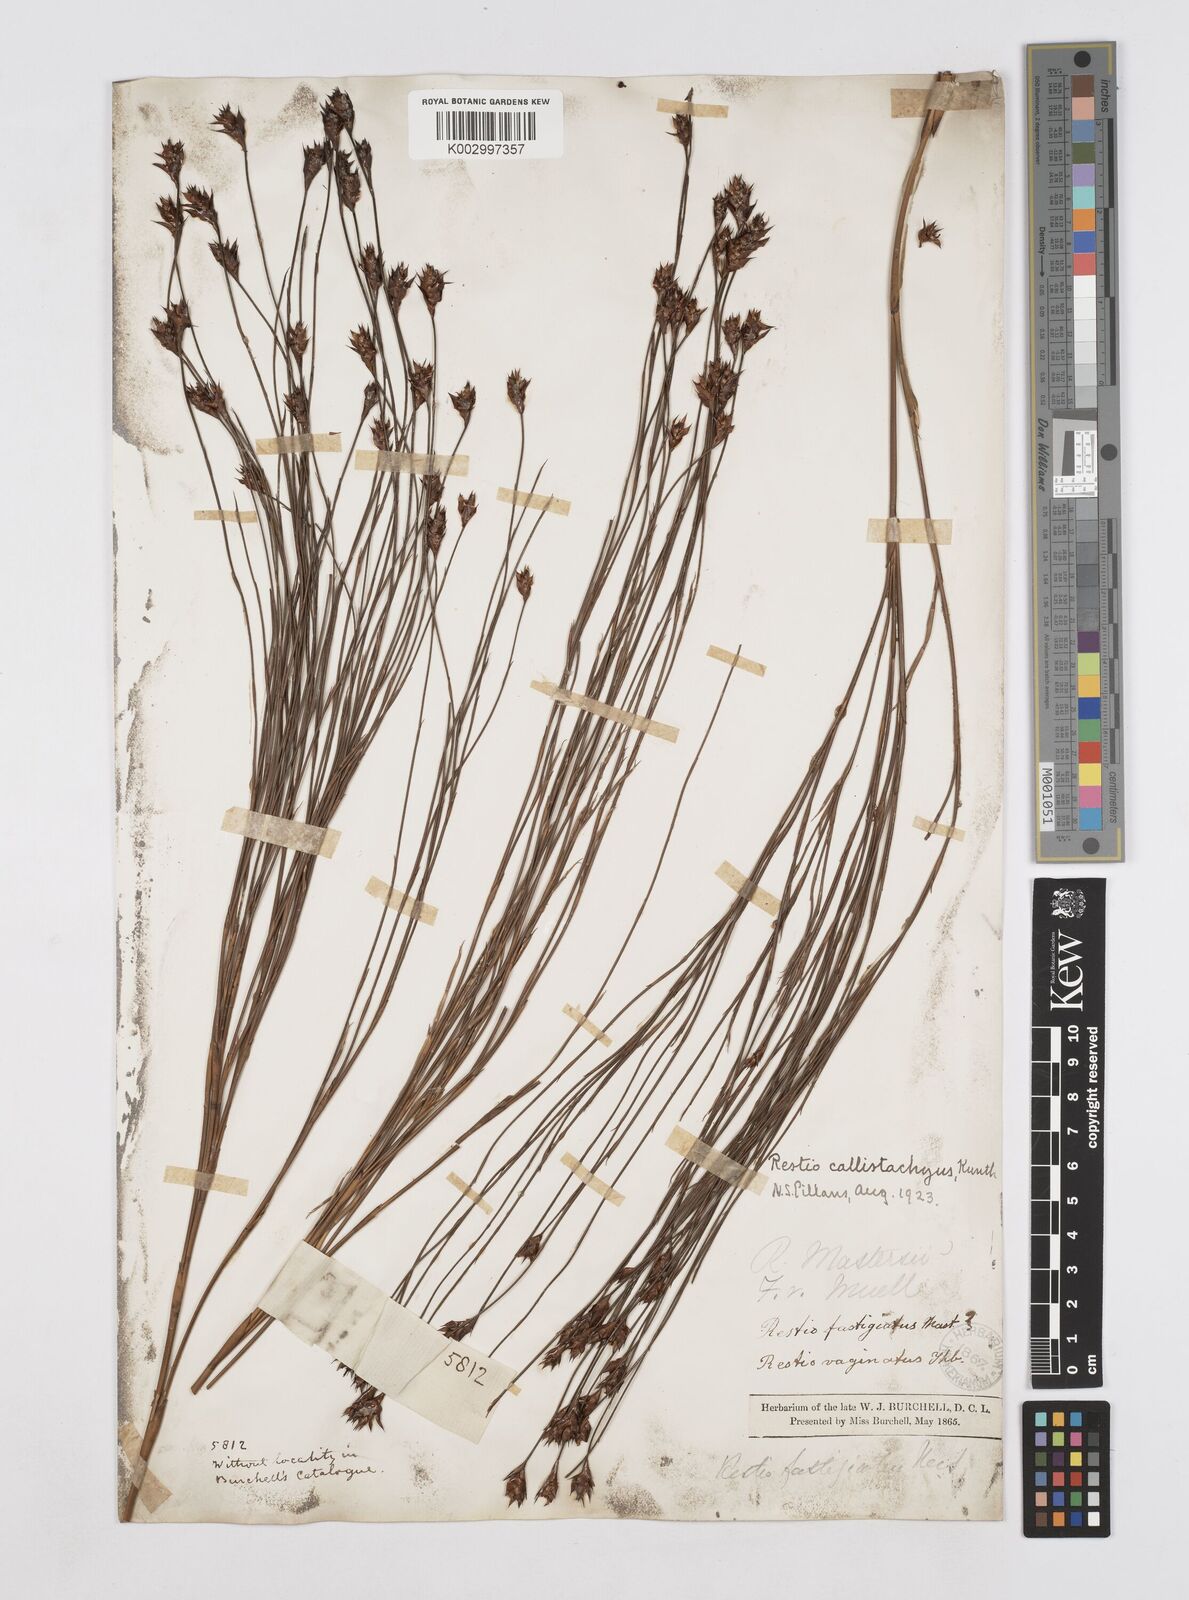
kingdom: Plantae
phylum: Tracheophyta
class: Liliopsida
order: Poales
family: Restionaceae
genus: Platycaulos
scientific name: Platycaulos callistachyus
